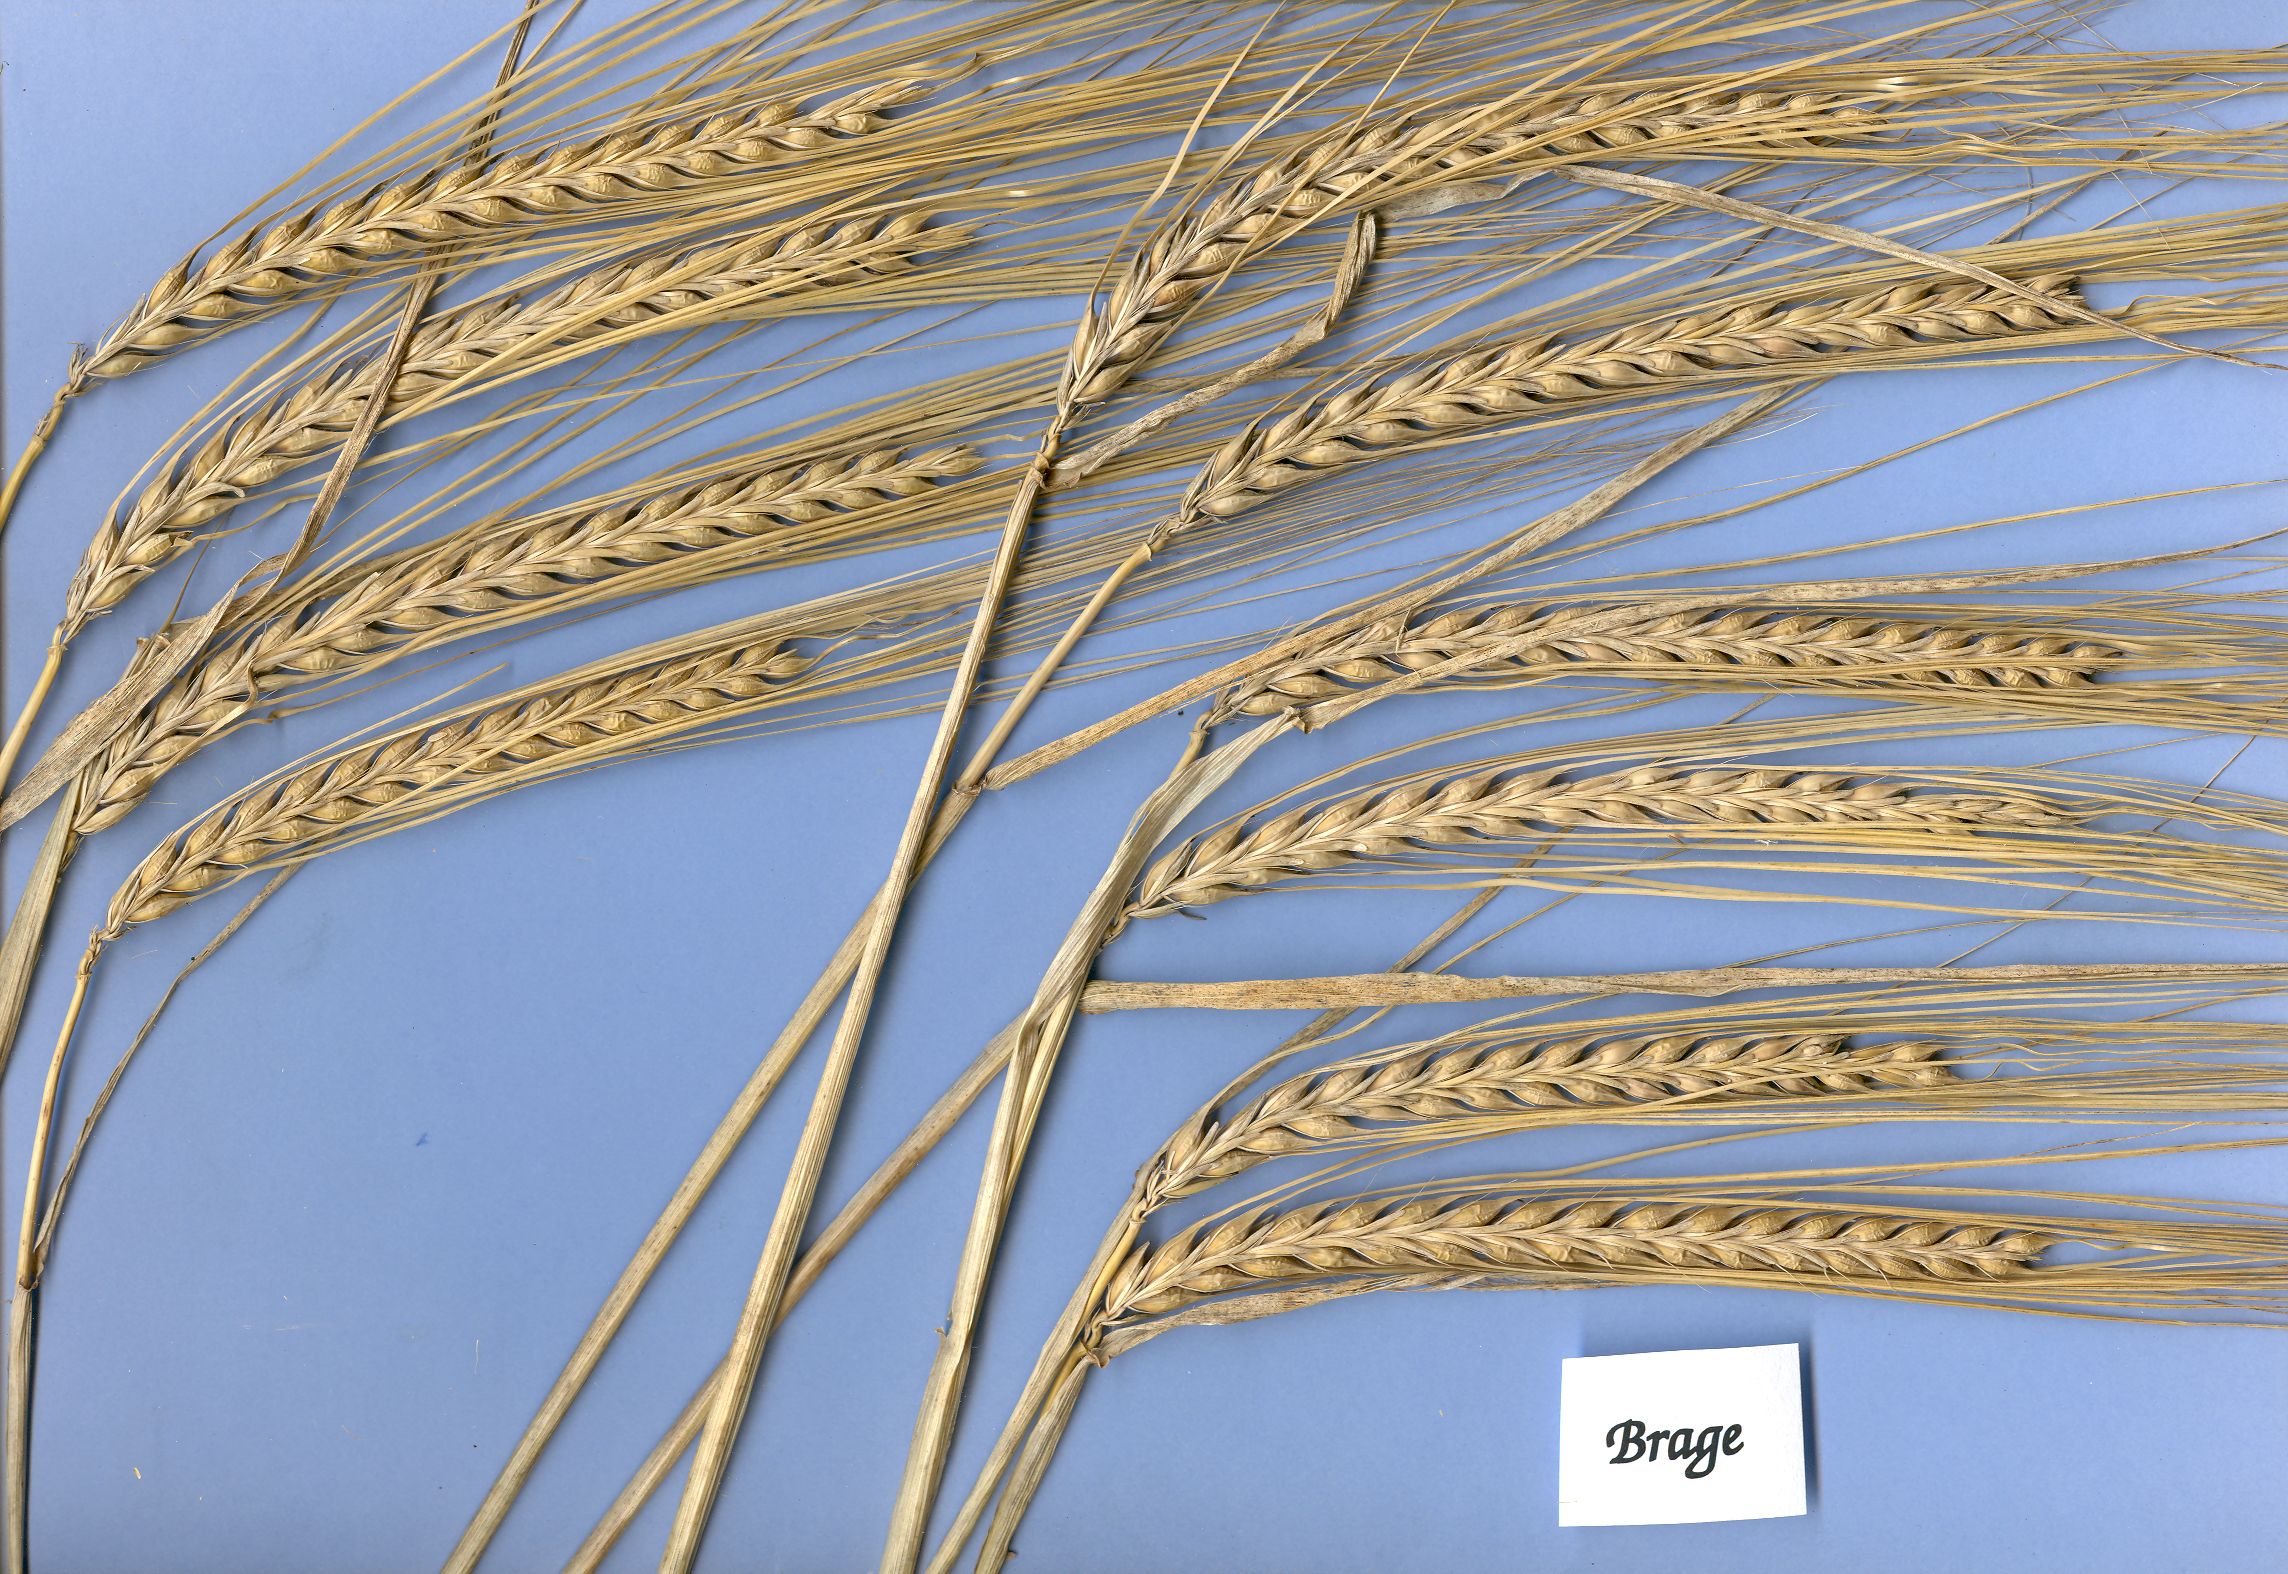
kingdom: Plantae
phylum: Tracheophyta
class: Liliopsida
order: Poales
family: Poaceae
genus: Hordeum
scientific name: Hordeum vulgare
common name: Common barley
